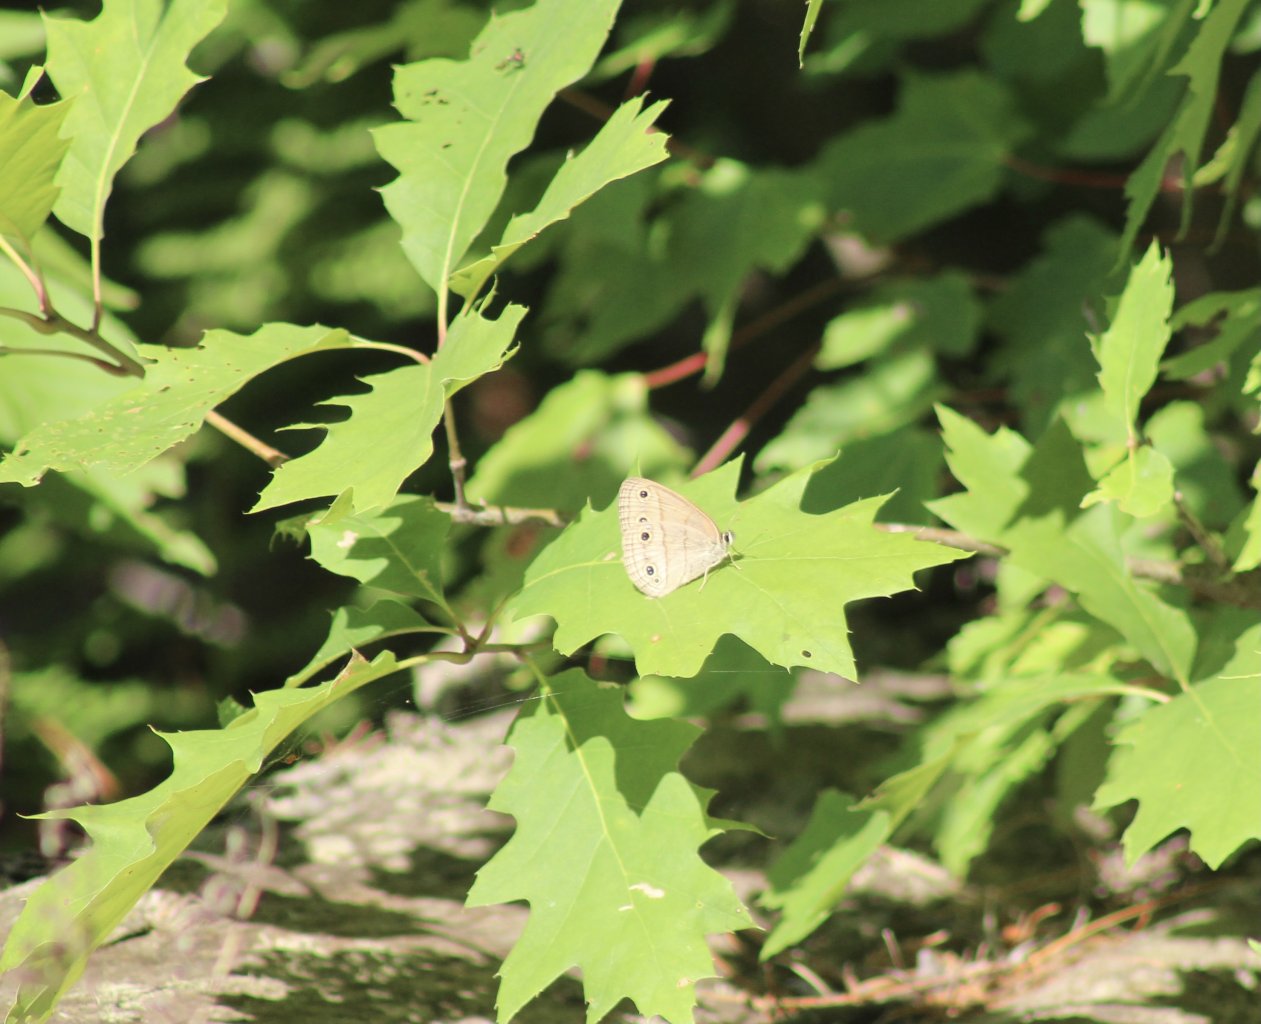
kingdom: Animalia
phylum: Arthropoda
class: Insecta
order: Lepidoptera
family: Nymphalidae
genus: Euptychia
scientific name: Euptychia cymela
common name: Little Wood Satyr
